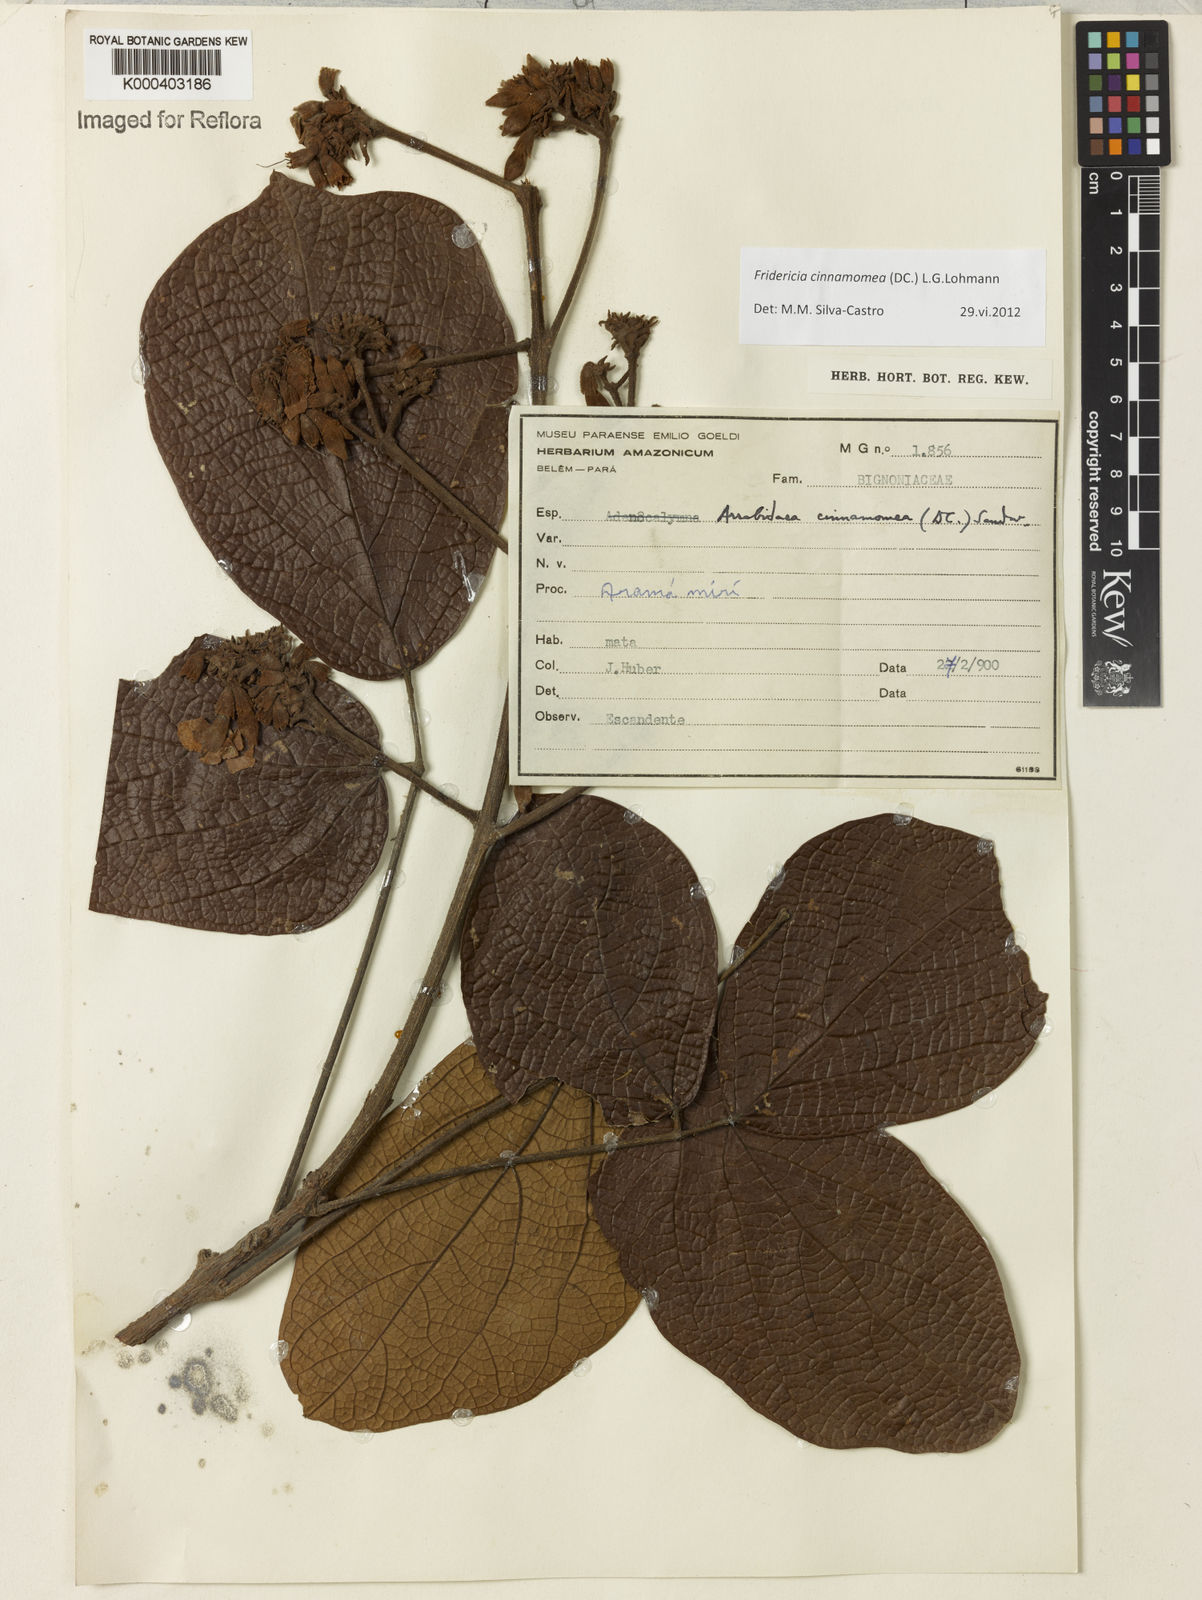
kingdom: Plantae
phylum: Tracheophyta
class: Magnoliopsida
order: Lamiales
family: Bignoniaceae
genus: Fridericia
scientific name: Fridericia cinnamomea
